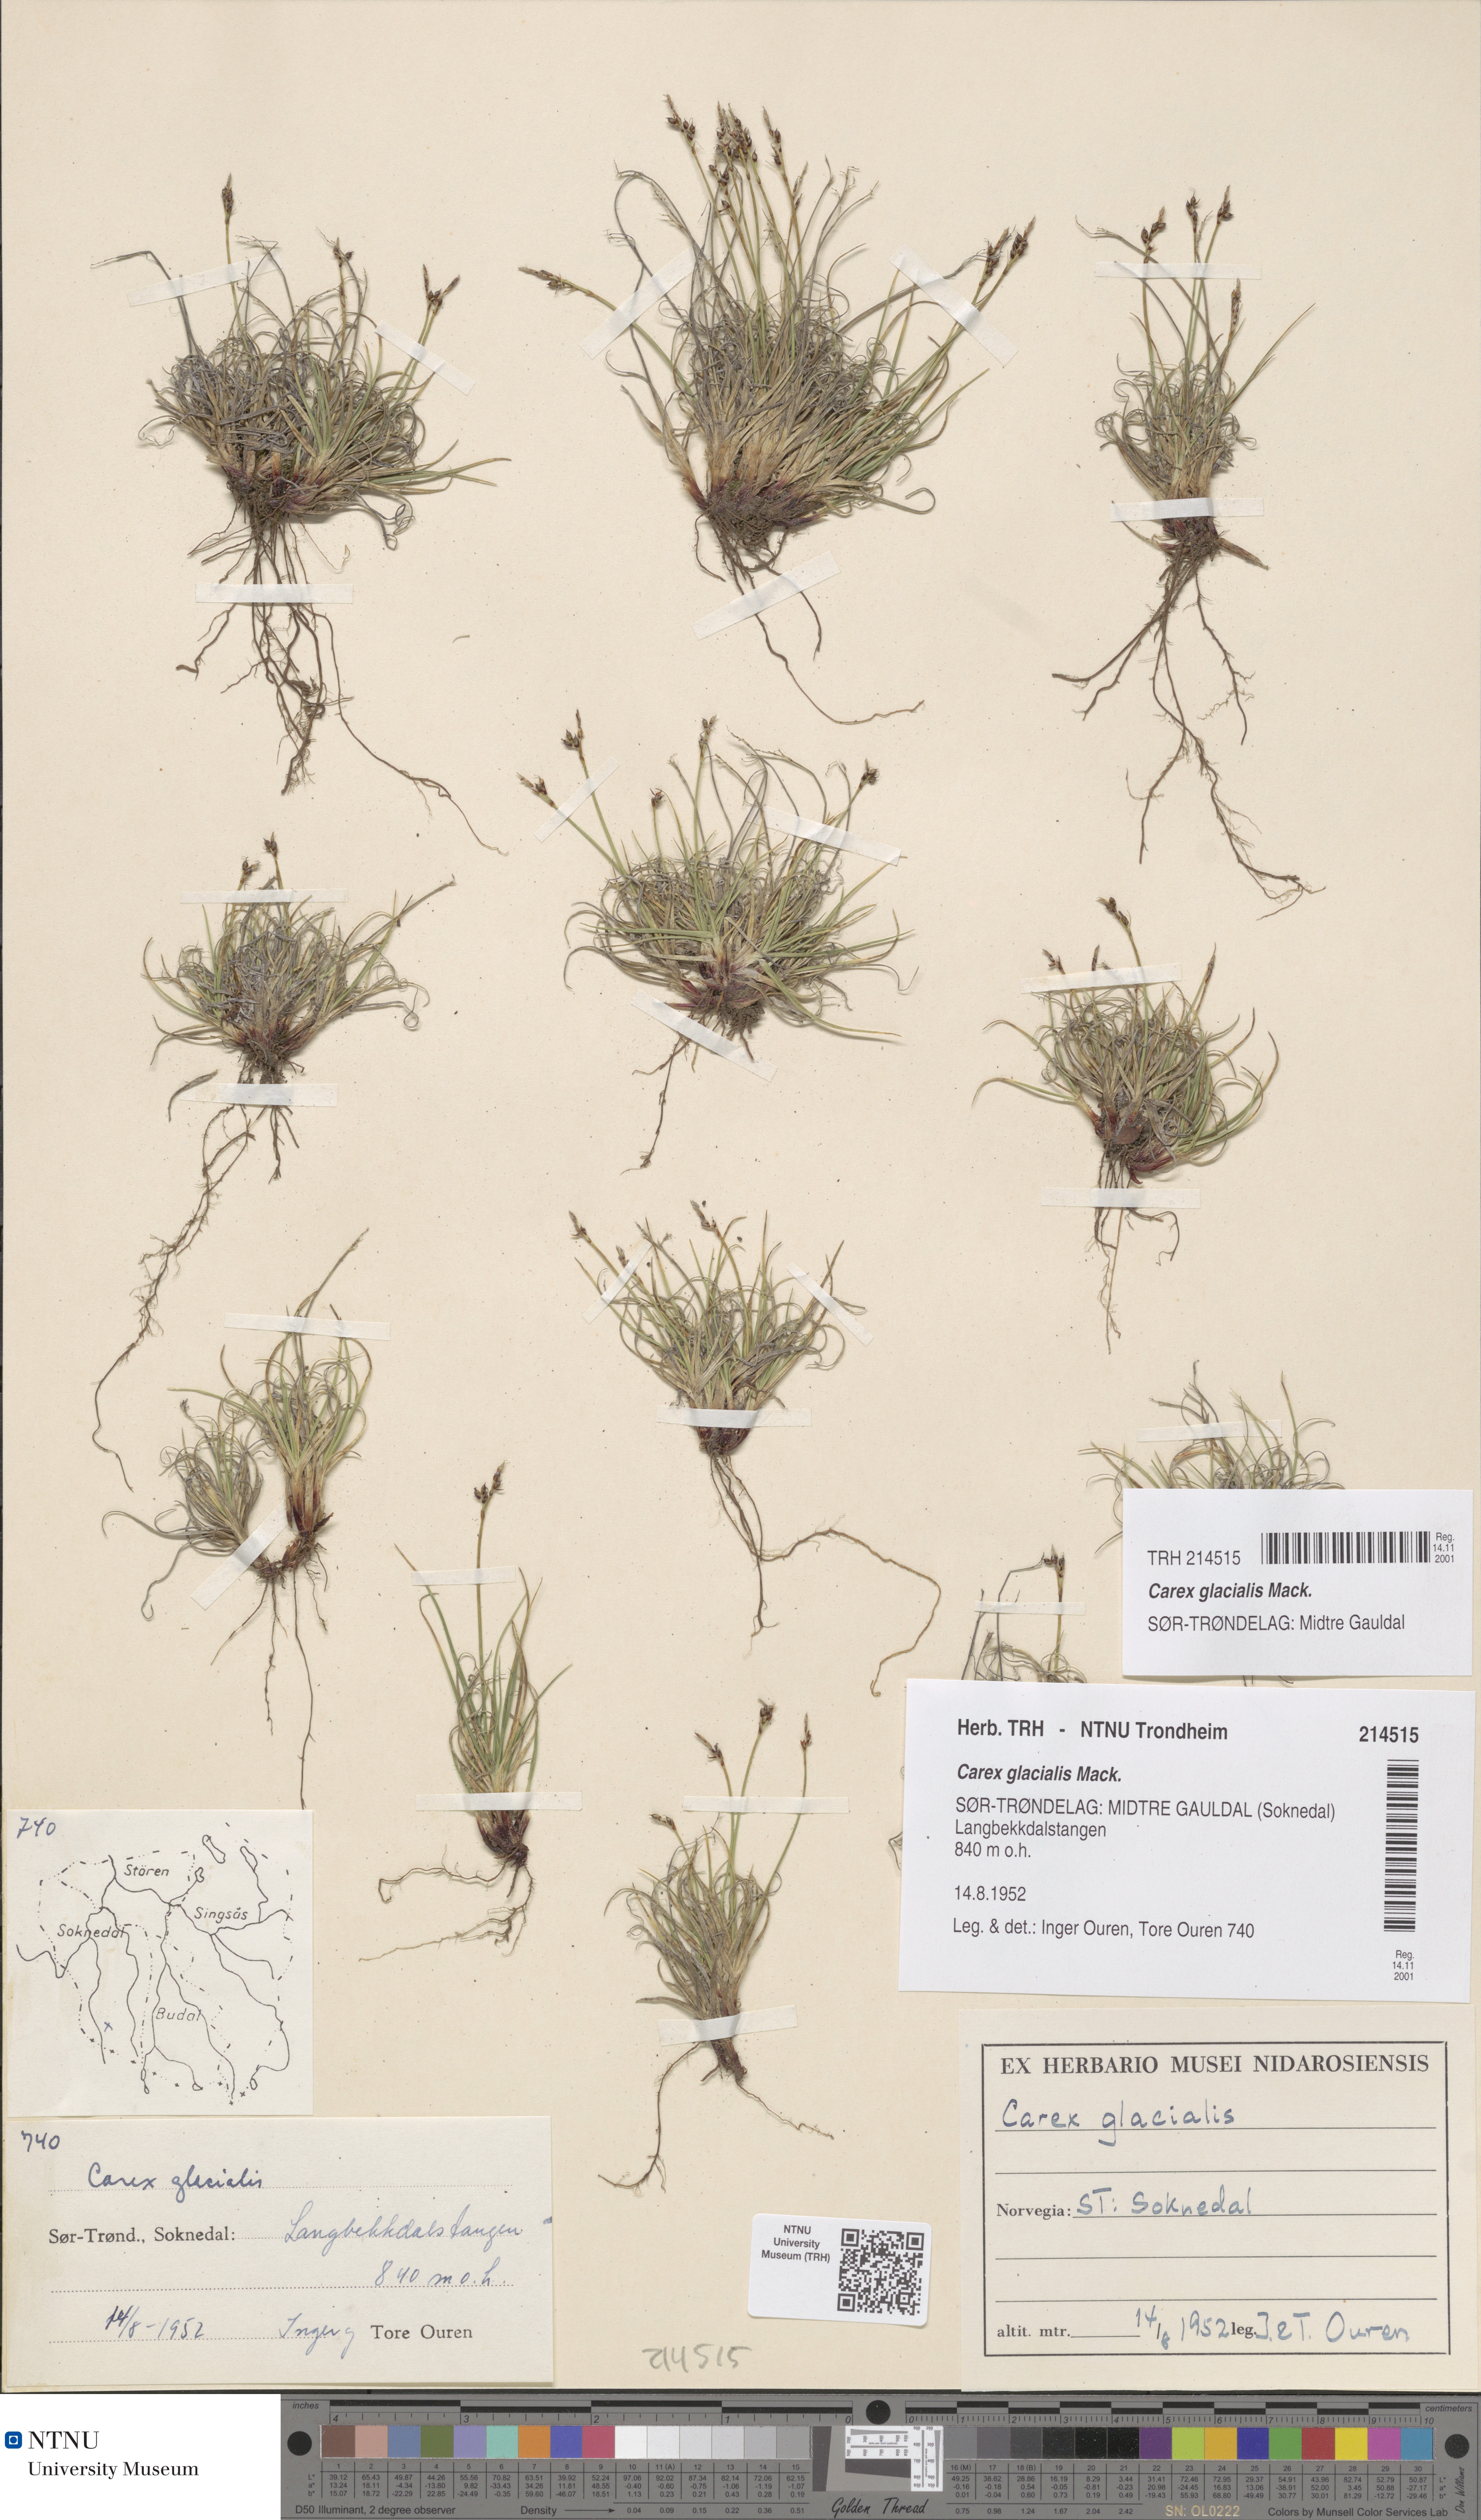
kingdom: Plantae
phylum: Tracheophyta
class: Liliopsida
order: Poales
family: Cyperaceae
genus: Carex
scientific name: Carex glacialis
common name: Newfoundland sedge
